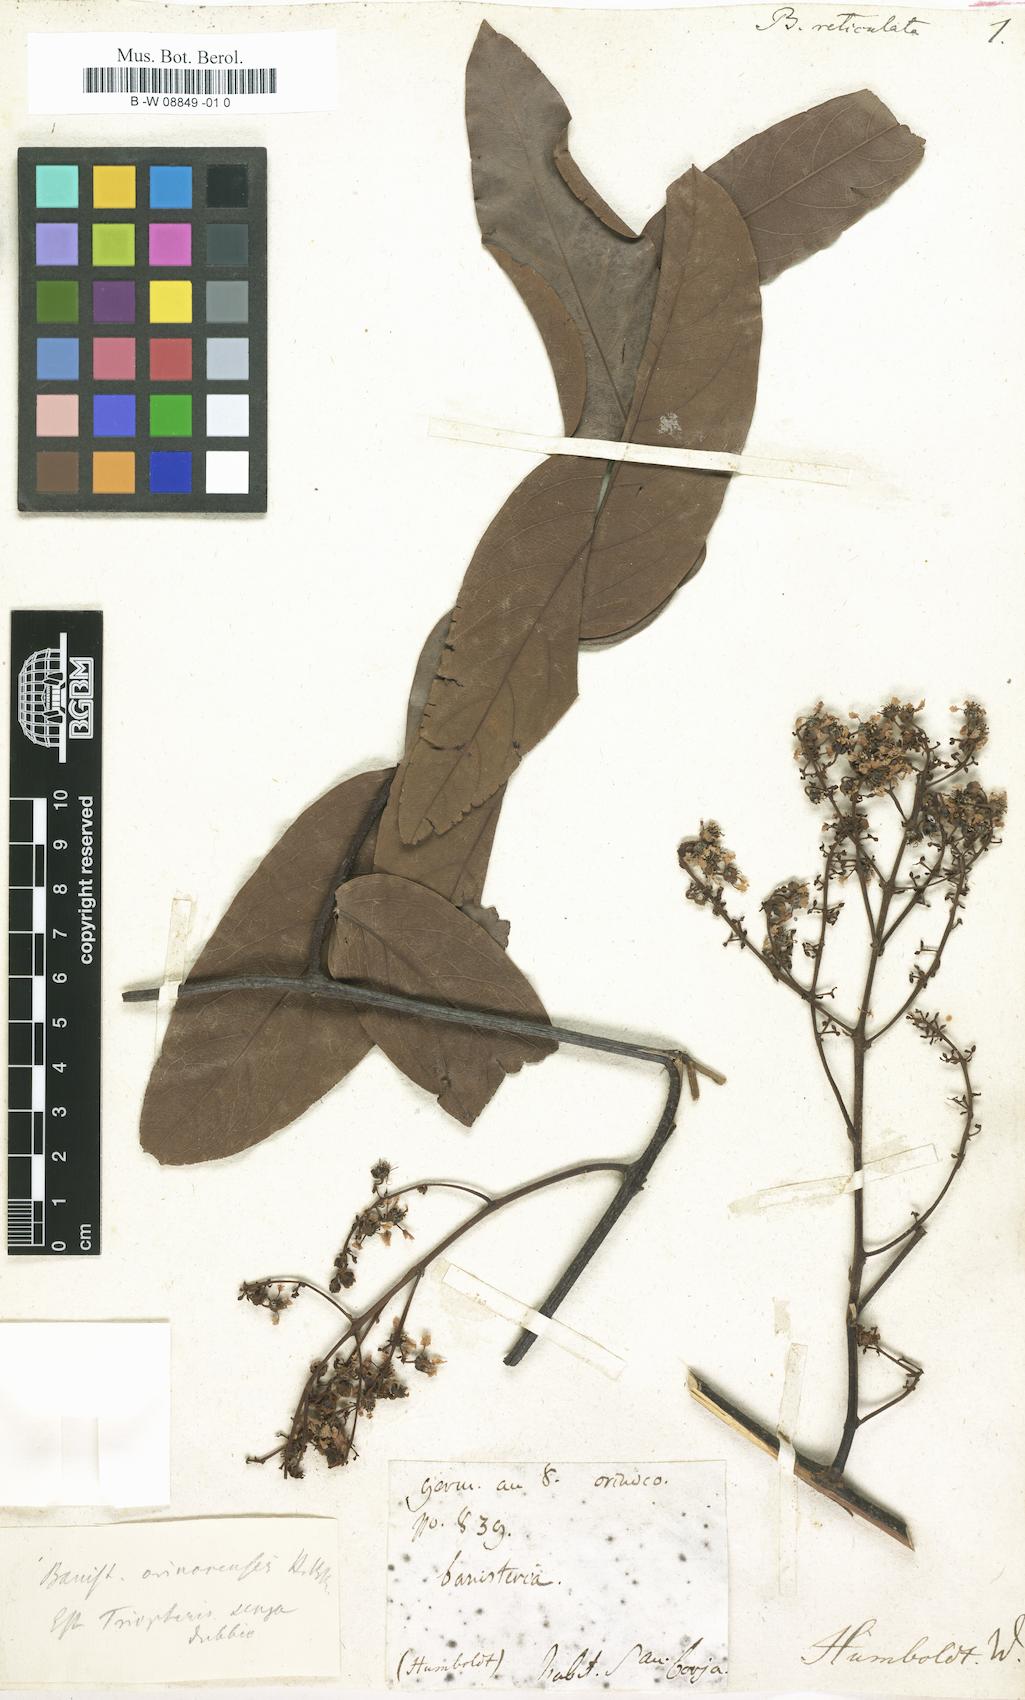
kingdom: Plantae
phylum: Tracheophyta
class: Magnoliopsida
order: Malpighiales
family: Malpighiaceae
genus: Heteropterys
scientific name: Heteropterys leona
